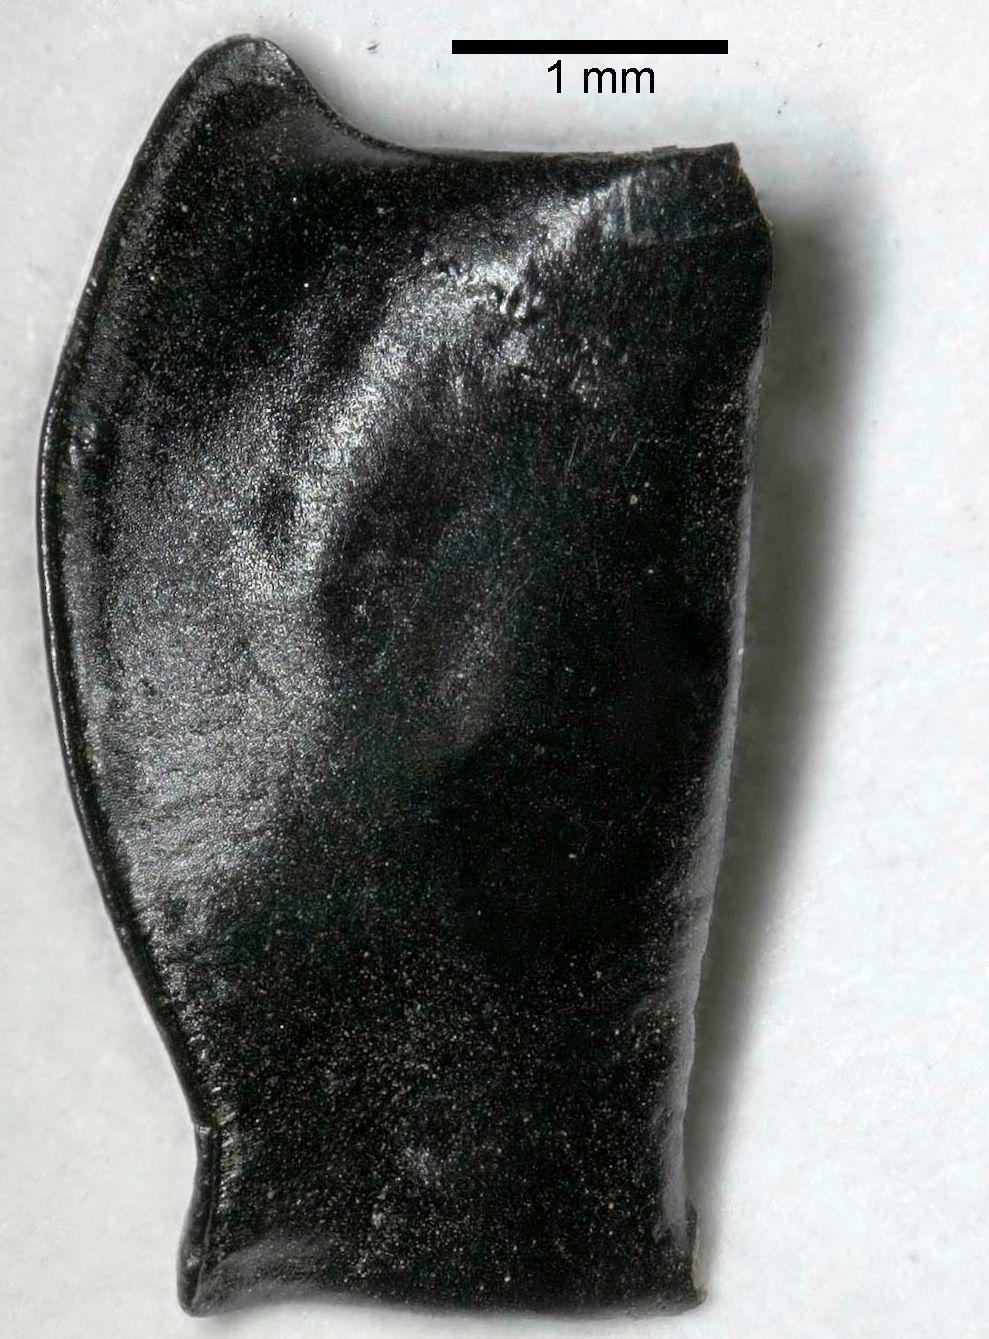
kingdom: Animalia
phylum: Arthropoda
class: Insecta
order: Coleoptera
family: Carabidae
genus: Pterostichus
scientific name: Pterostichus illustris
